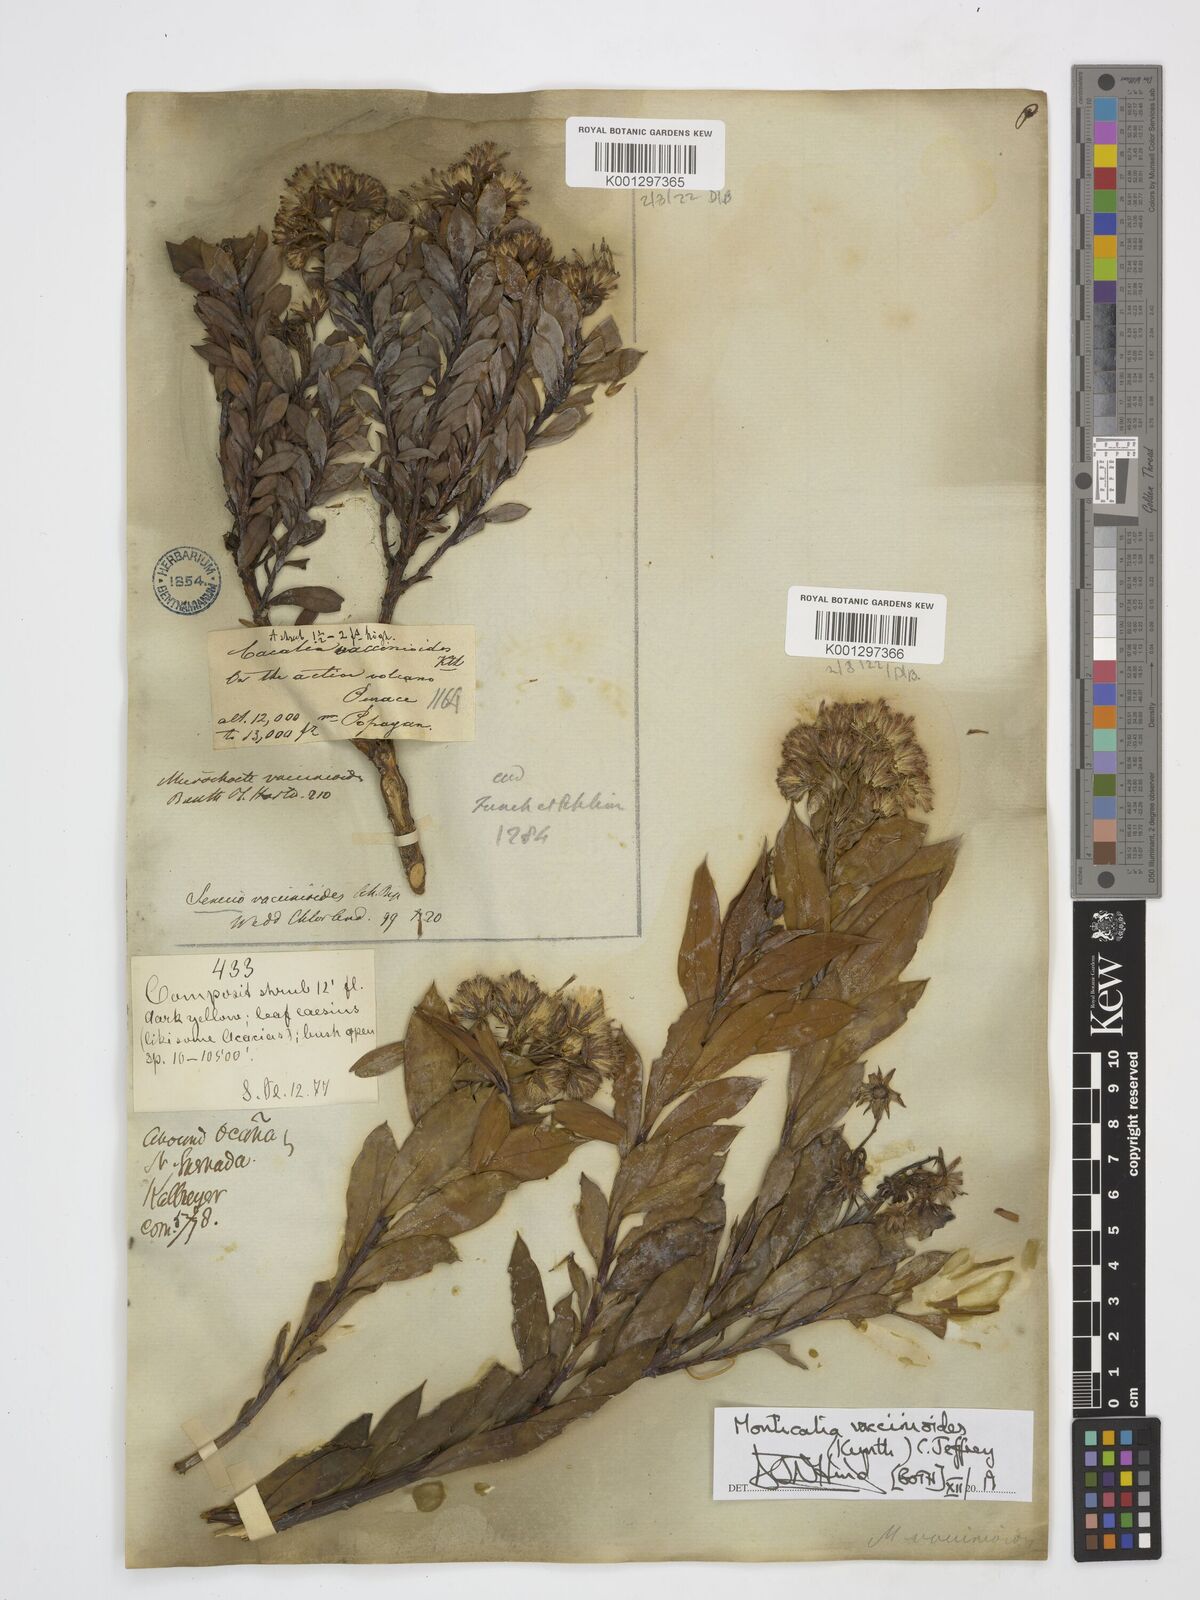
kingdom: Plantae
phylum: Tracheophyta
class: Magnoliopsida
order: Asterales
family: Asteraceae
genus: Monticalia
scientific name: Monticalia vaccinioides
